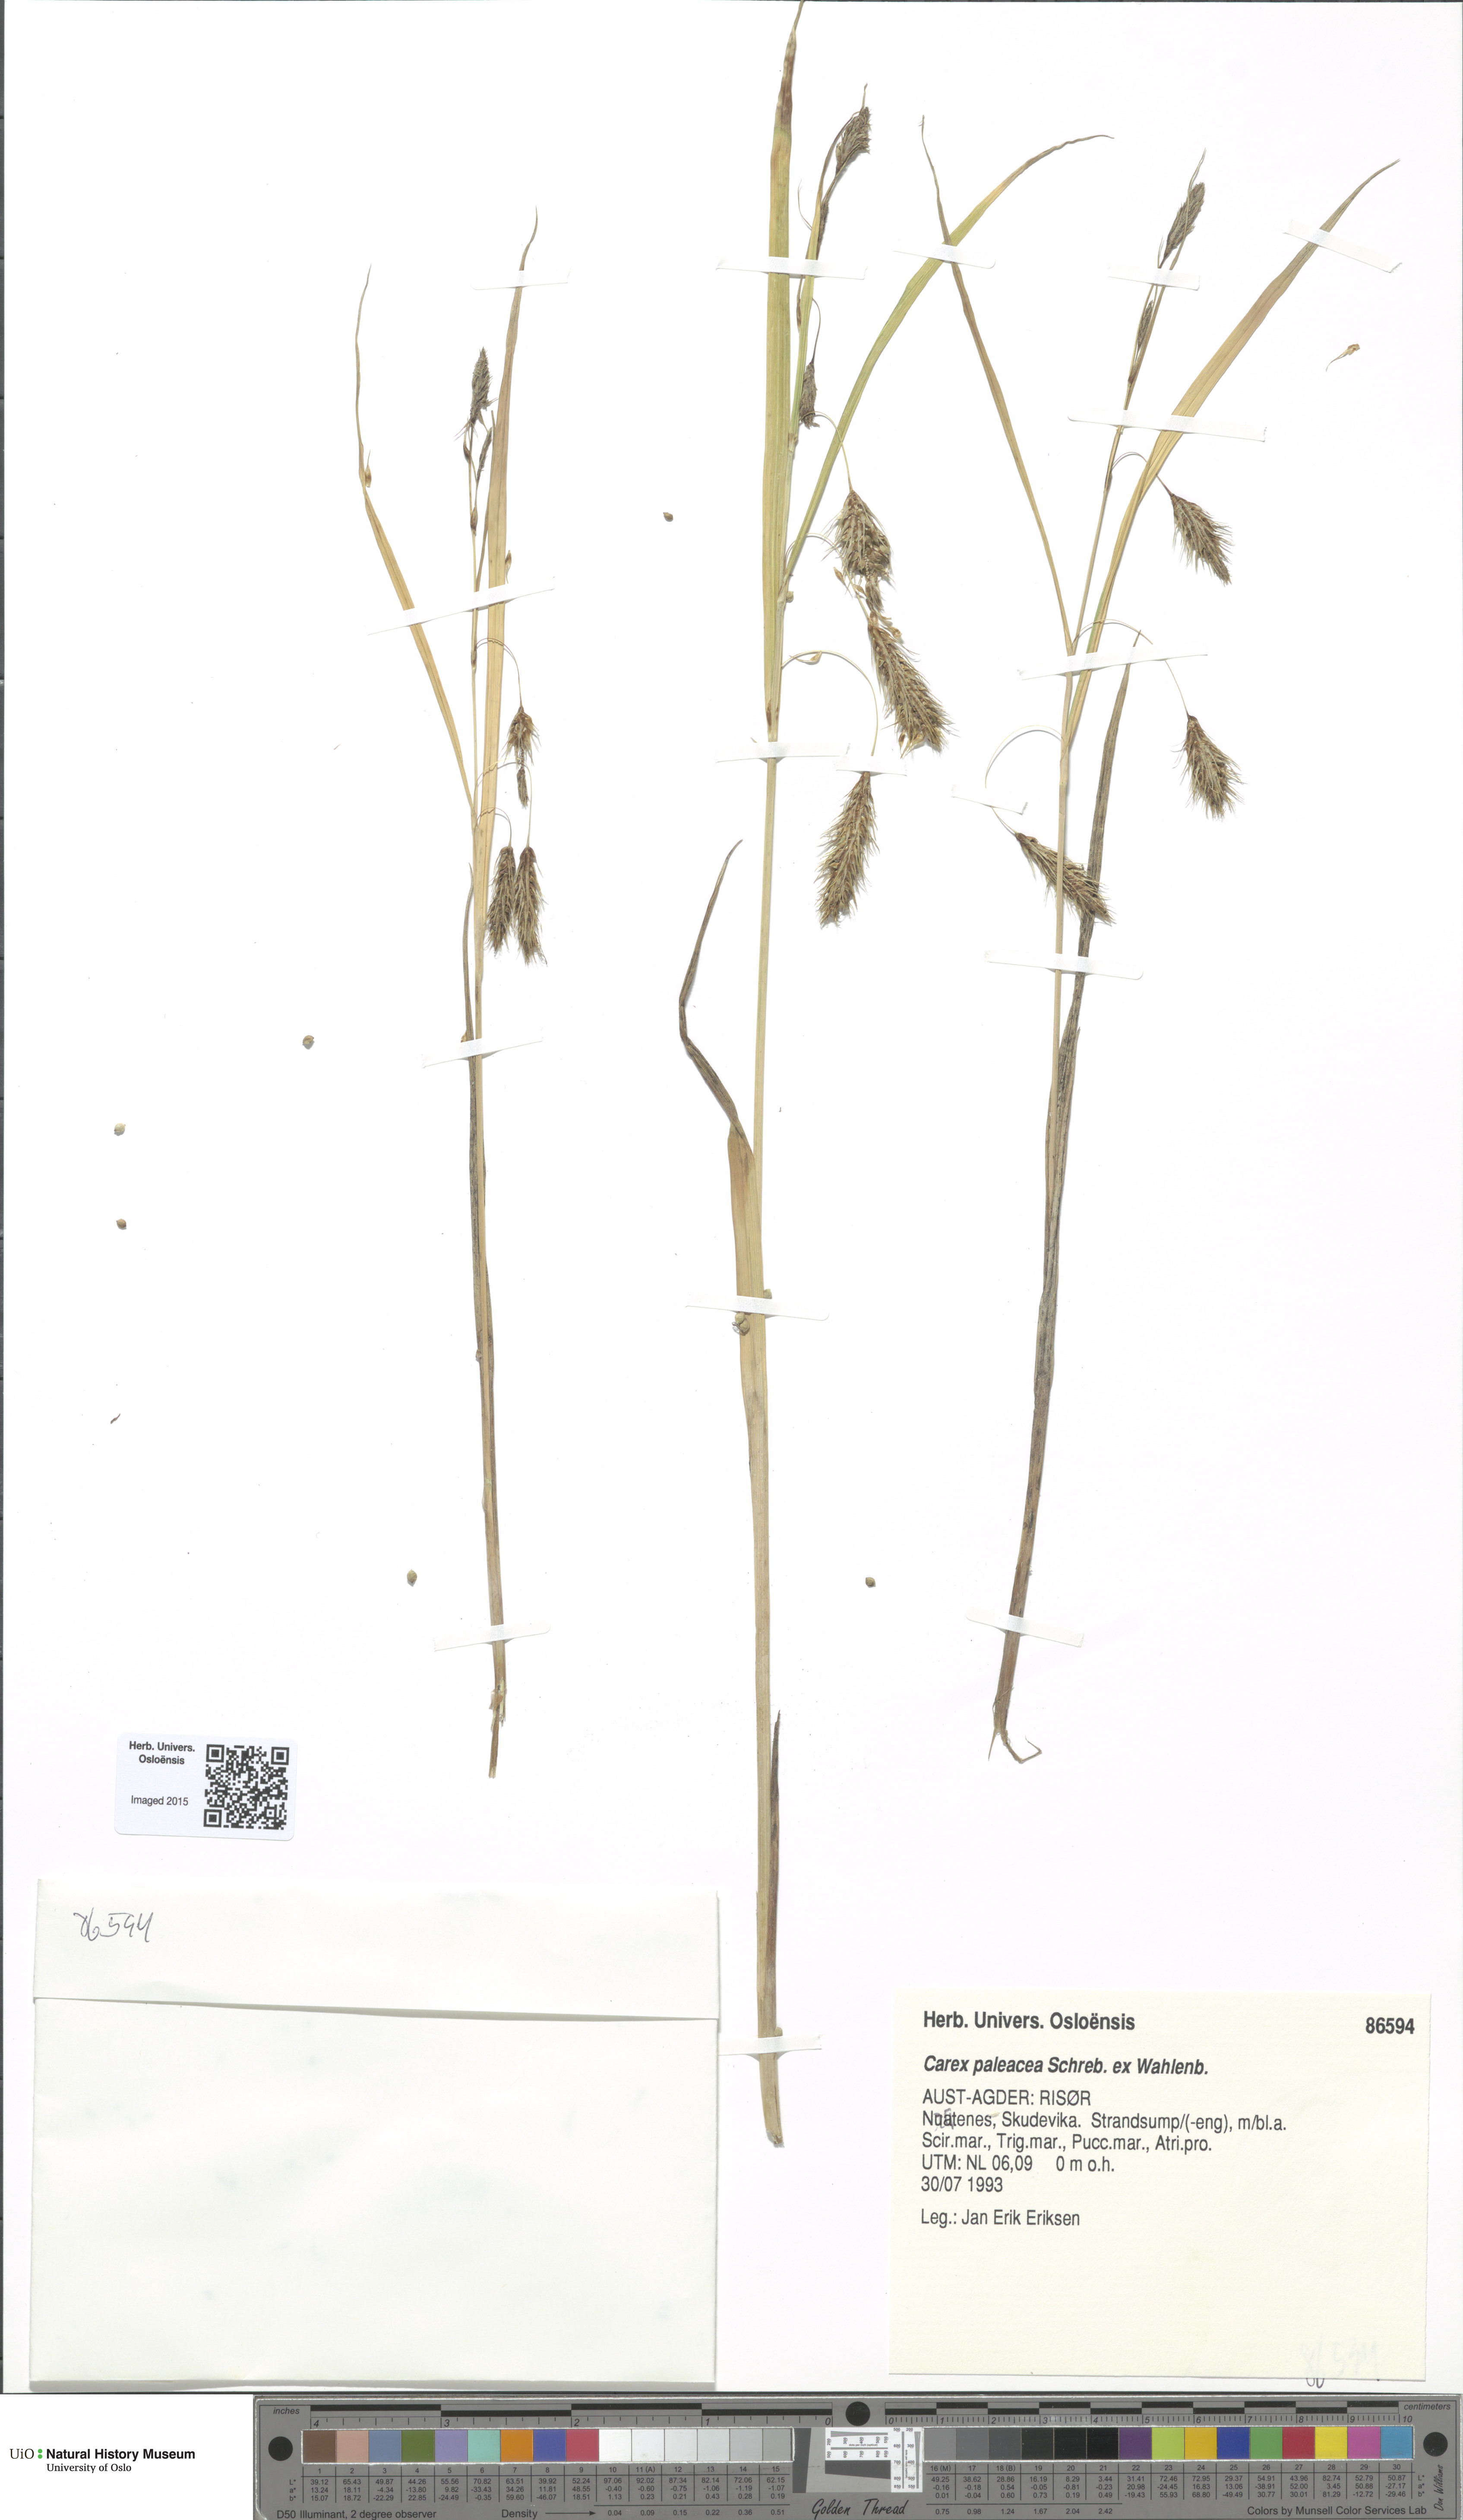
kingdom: Plantae
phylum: Tracheophyta
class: Liliopsida
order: Poales
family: Cyperaceae
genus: Carex
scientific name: Carex paleacea
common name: Chaffy sedge
